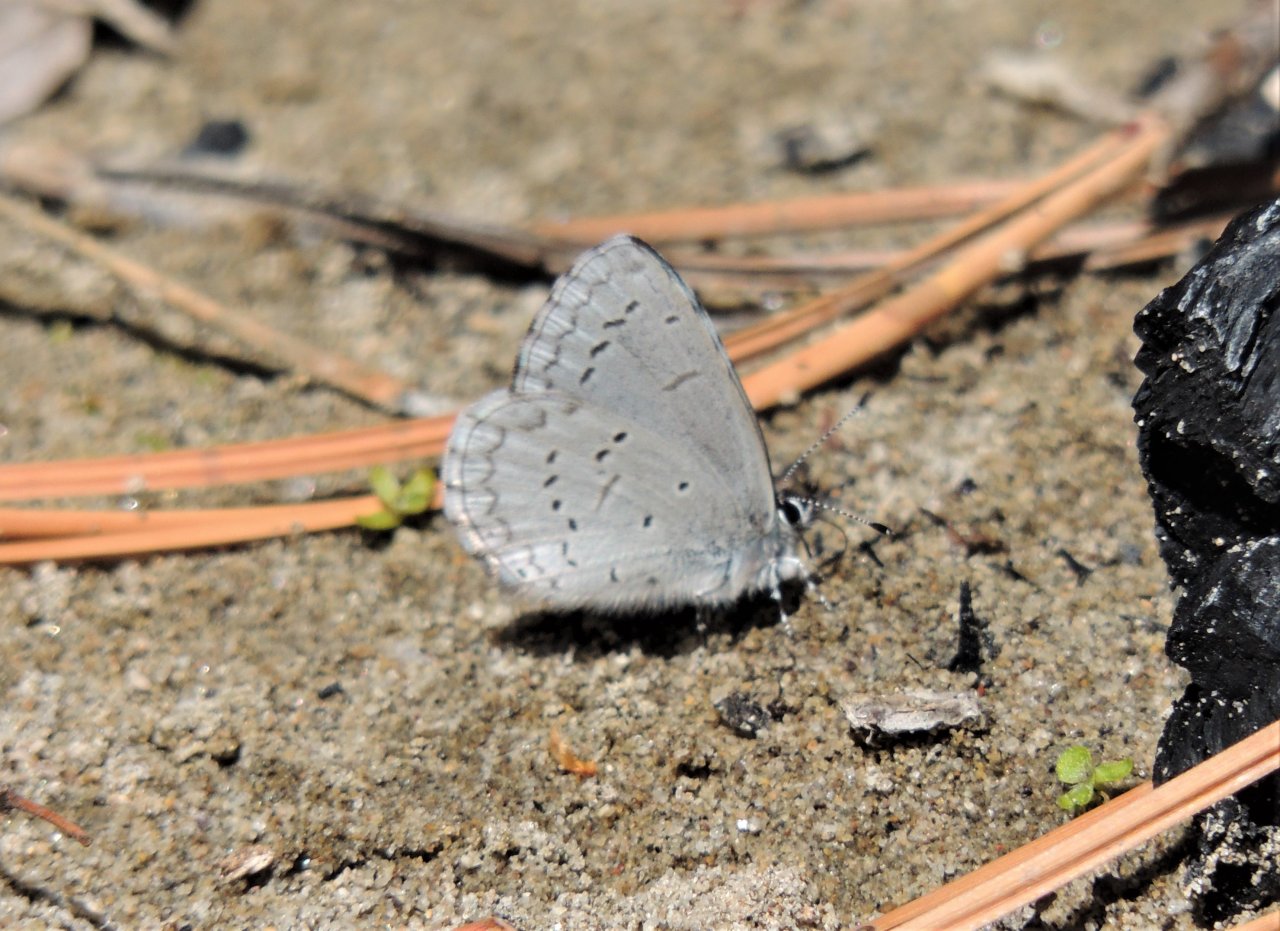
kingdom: Animalia
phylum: Arthropoda
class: Insecta
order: Lepidoptera
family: Lycaenidae
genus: Celastrina
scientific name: Celastrina ladon
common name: Echo Azure
